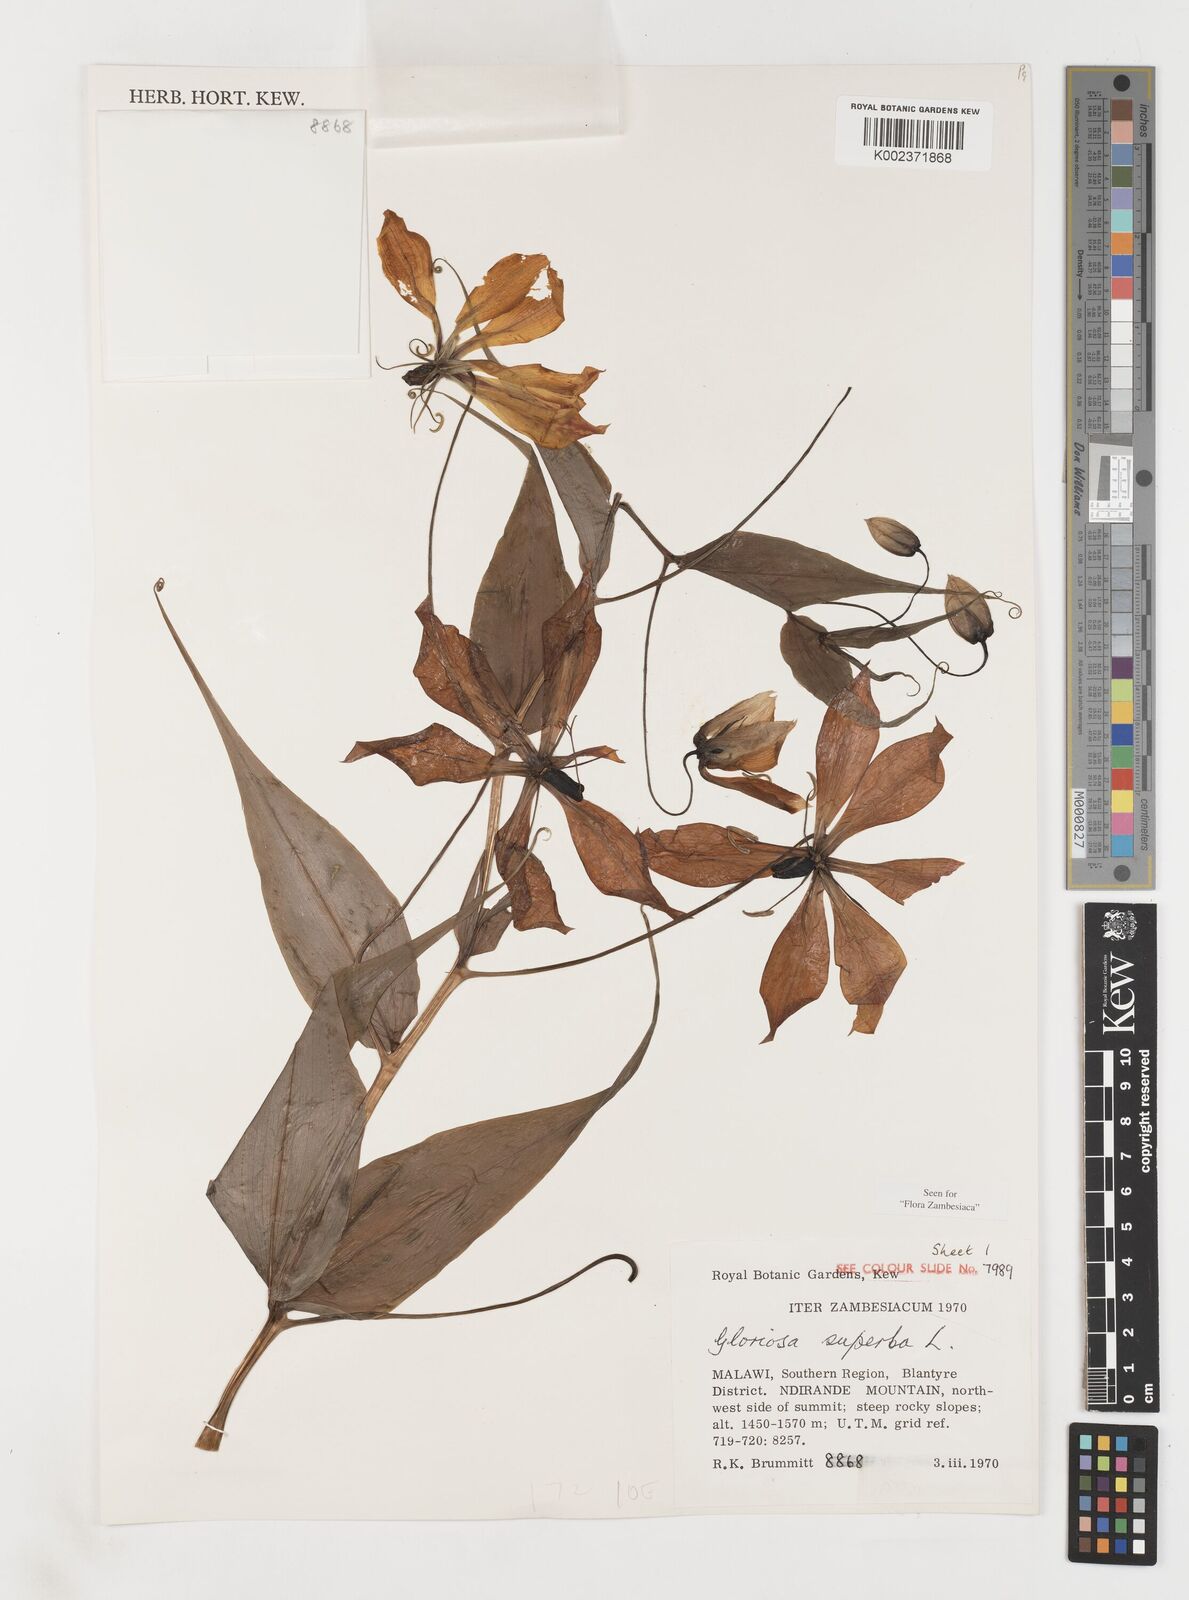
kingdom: Plantae
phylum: Tracheophyta
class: Liliopsida
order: Liliales
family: Colchicaceae
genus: Gloriosa
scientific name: Gloriosa simplex
